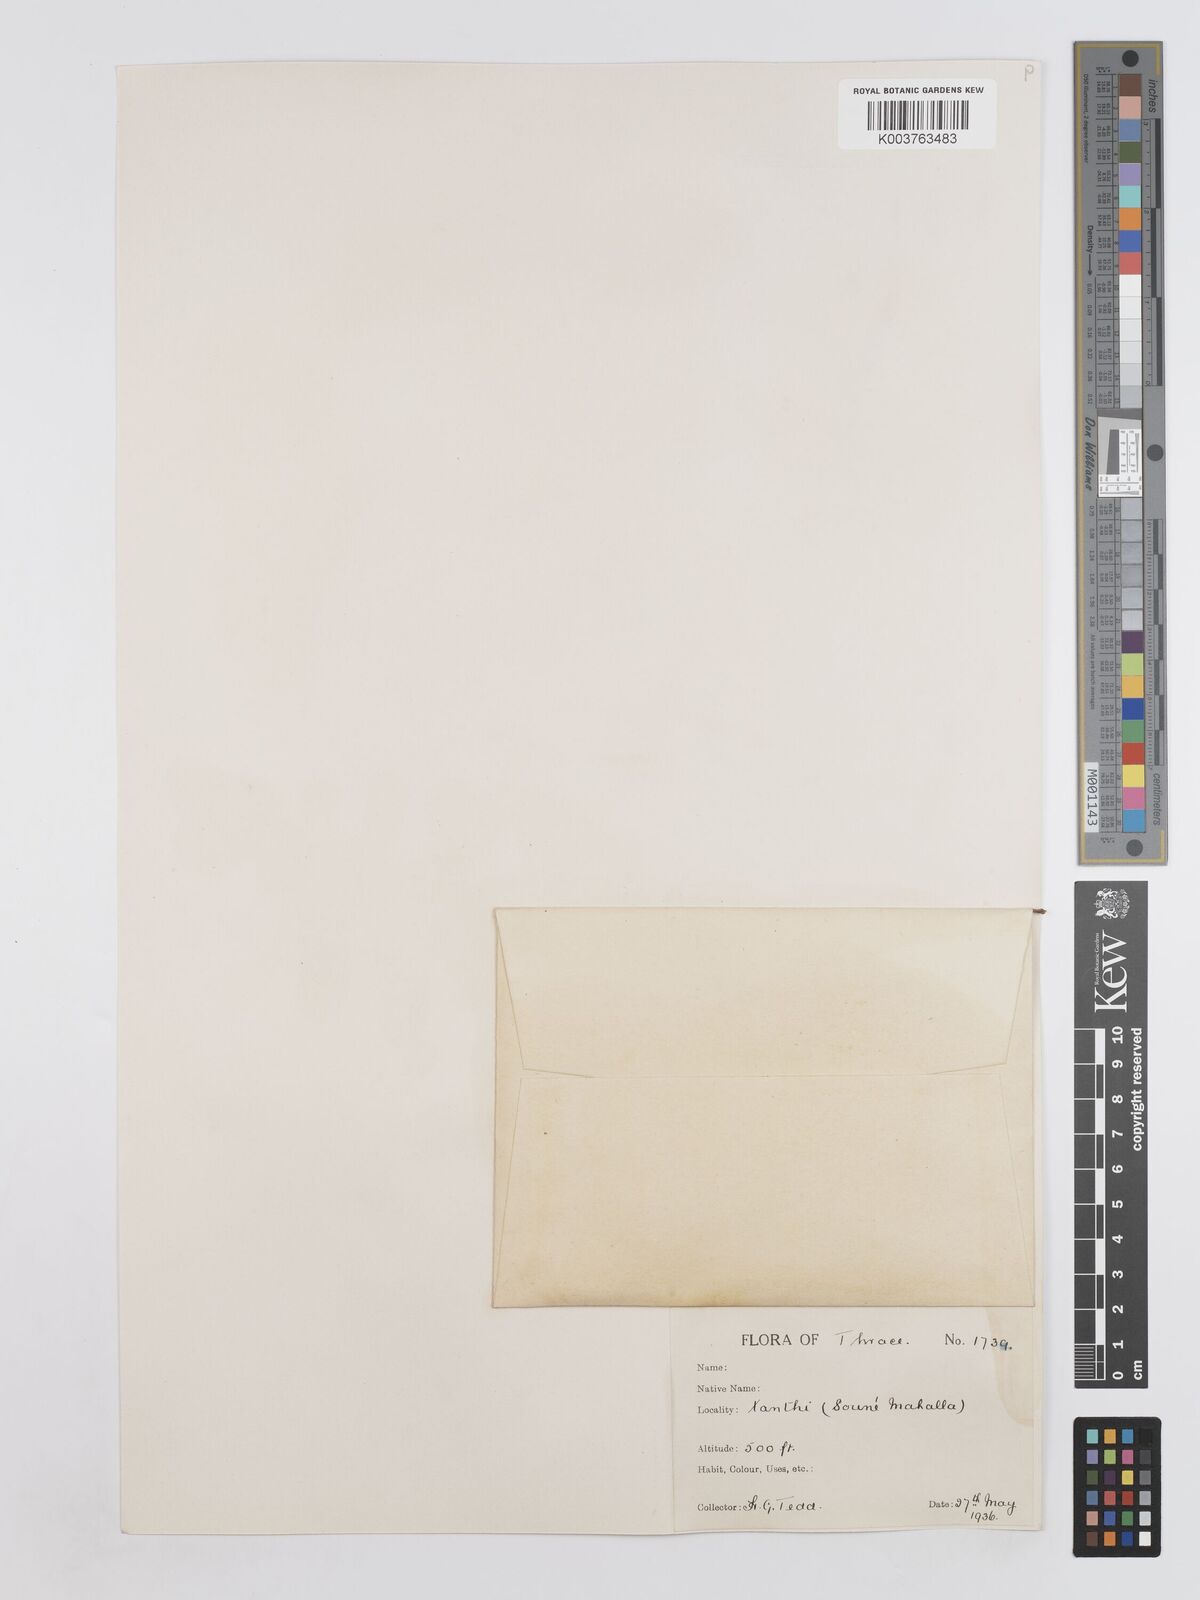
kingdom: Plantae
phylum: Tracheophyta
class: Magnoliopsida
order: Fabales
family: Fabaceae
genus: Onobrychis
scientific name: Onobrychis caput-galli
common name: Cockscomb sainfoin
